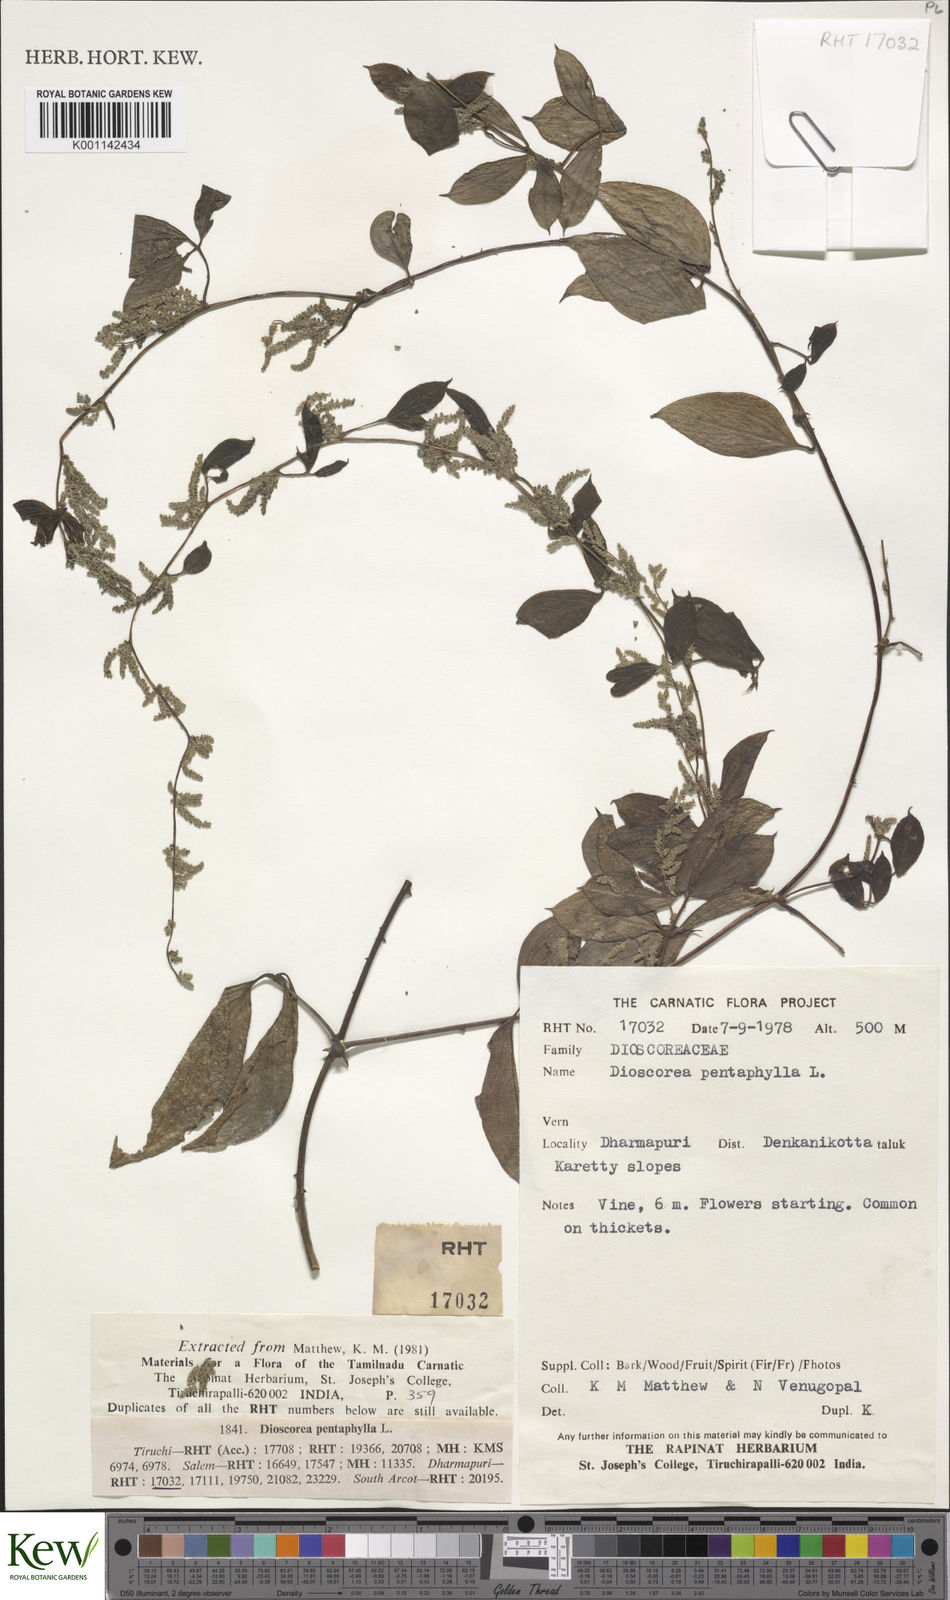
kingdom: Plantae
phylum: Tracheophyta
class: Liliopsida
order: Dioscoreales
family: Dioscoreaceae
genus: Dioscorea
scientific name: Dioscorea pentaphylla
